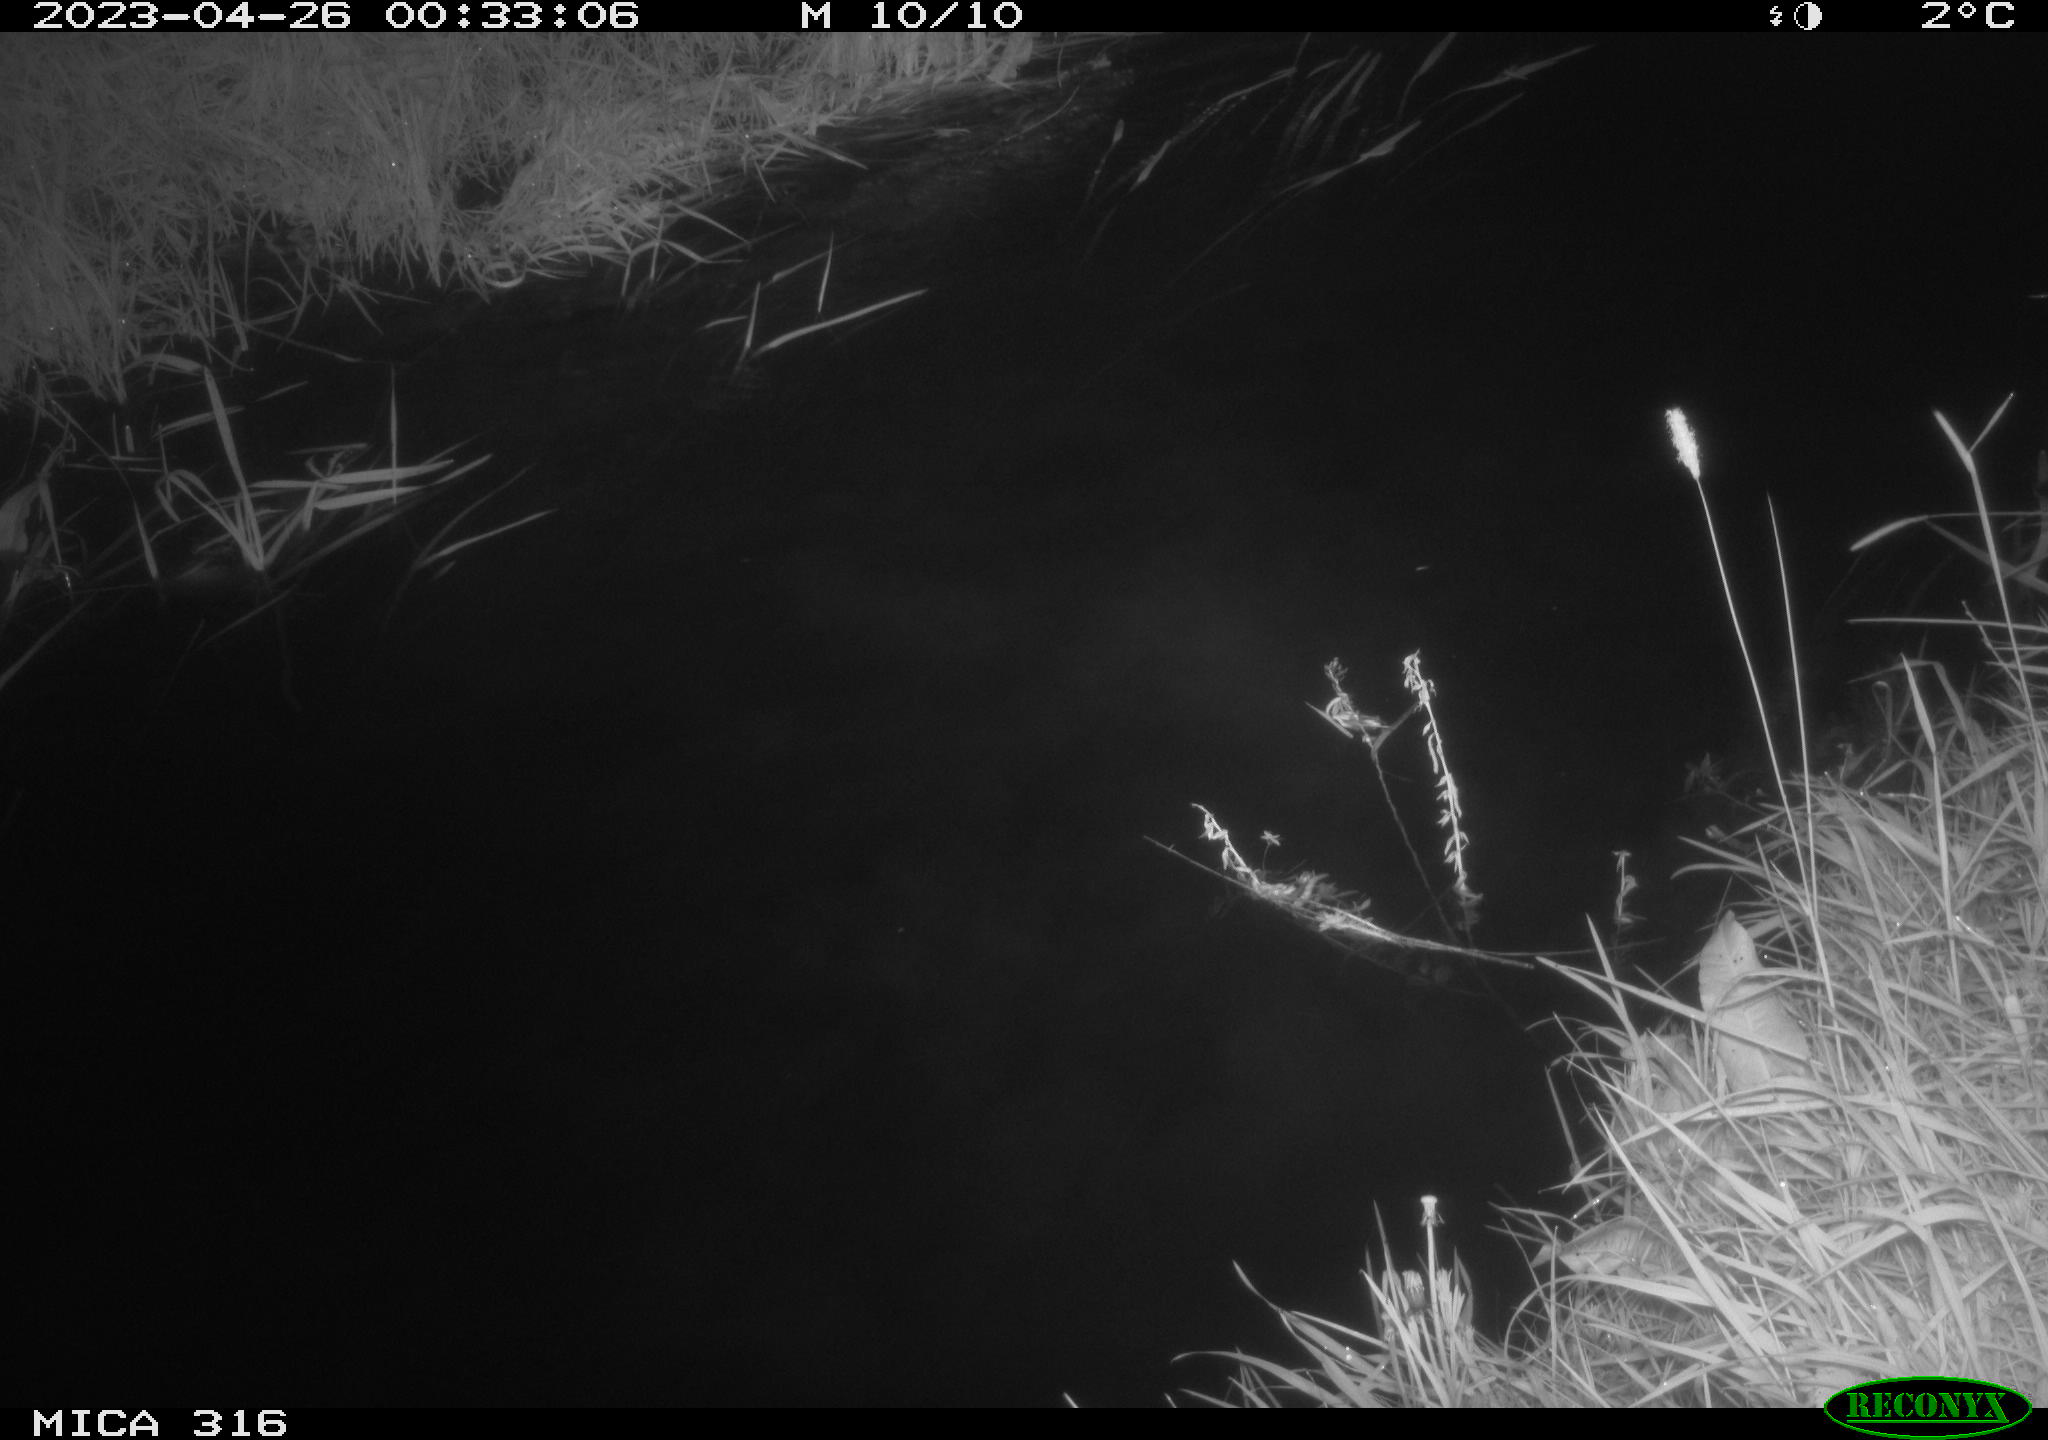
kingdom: Animalia
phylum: Chordata
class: Aves
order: Anseriformes
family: Anatidae
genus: Anas
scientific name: Anas
